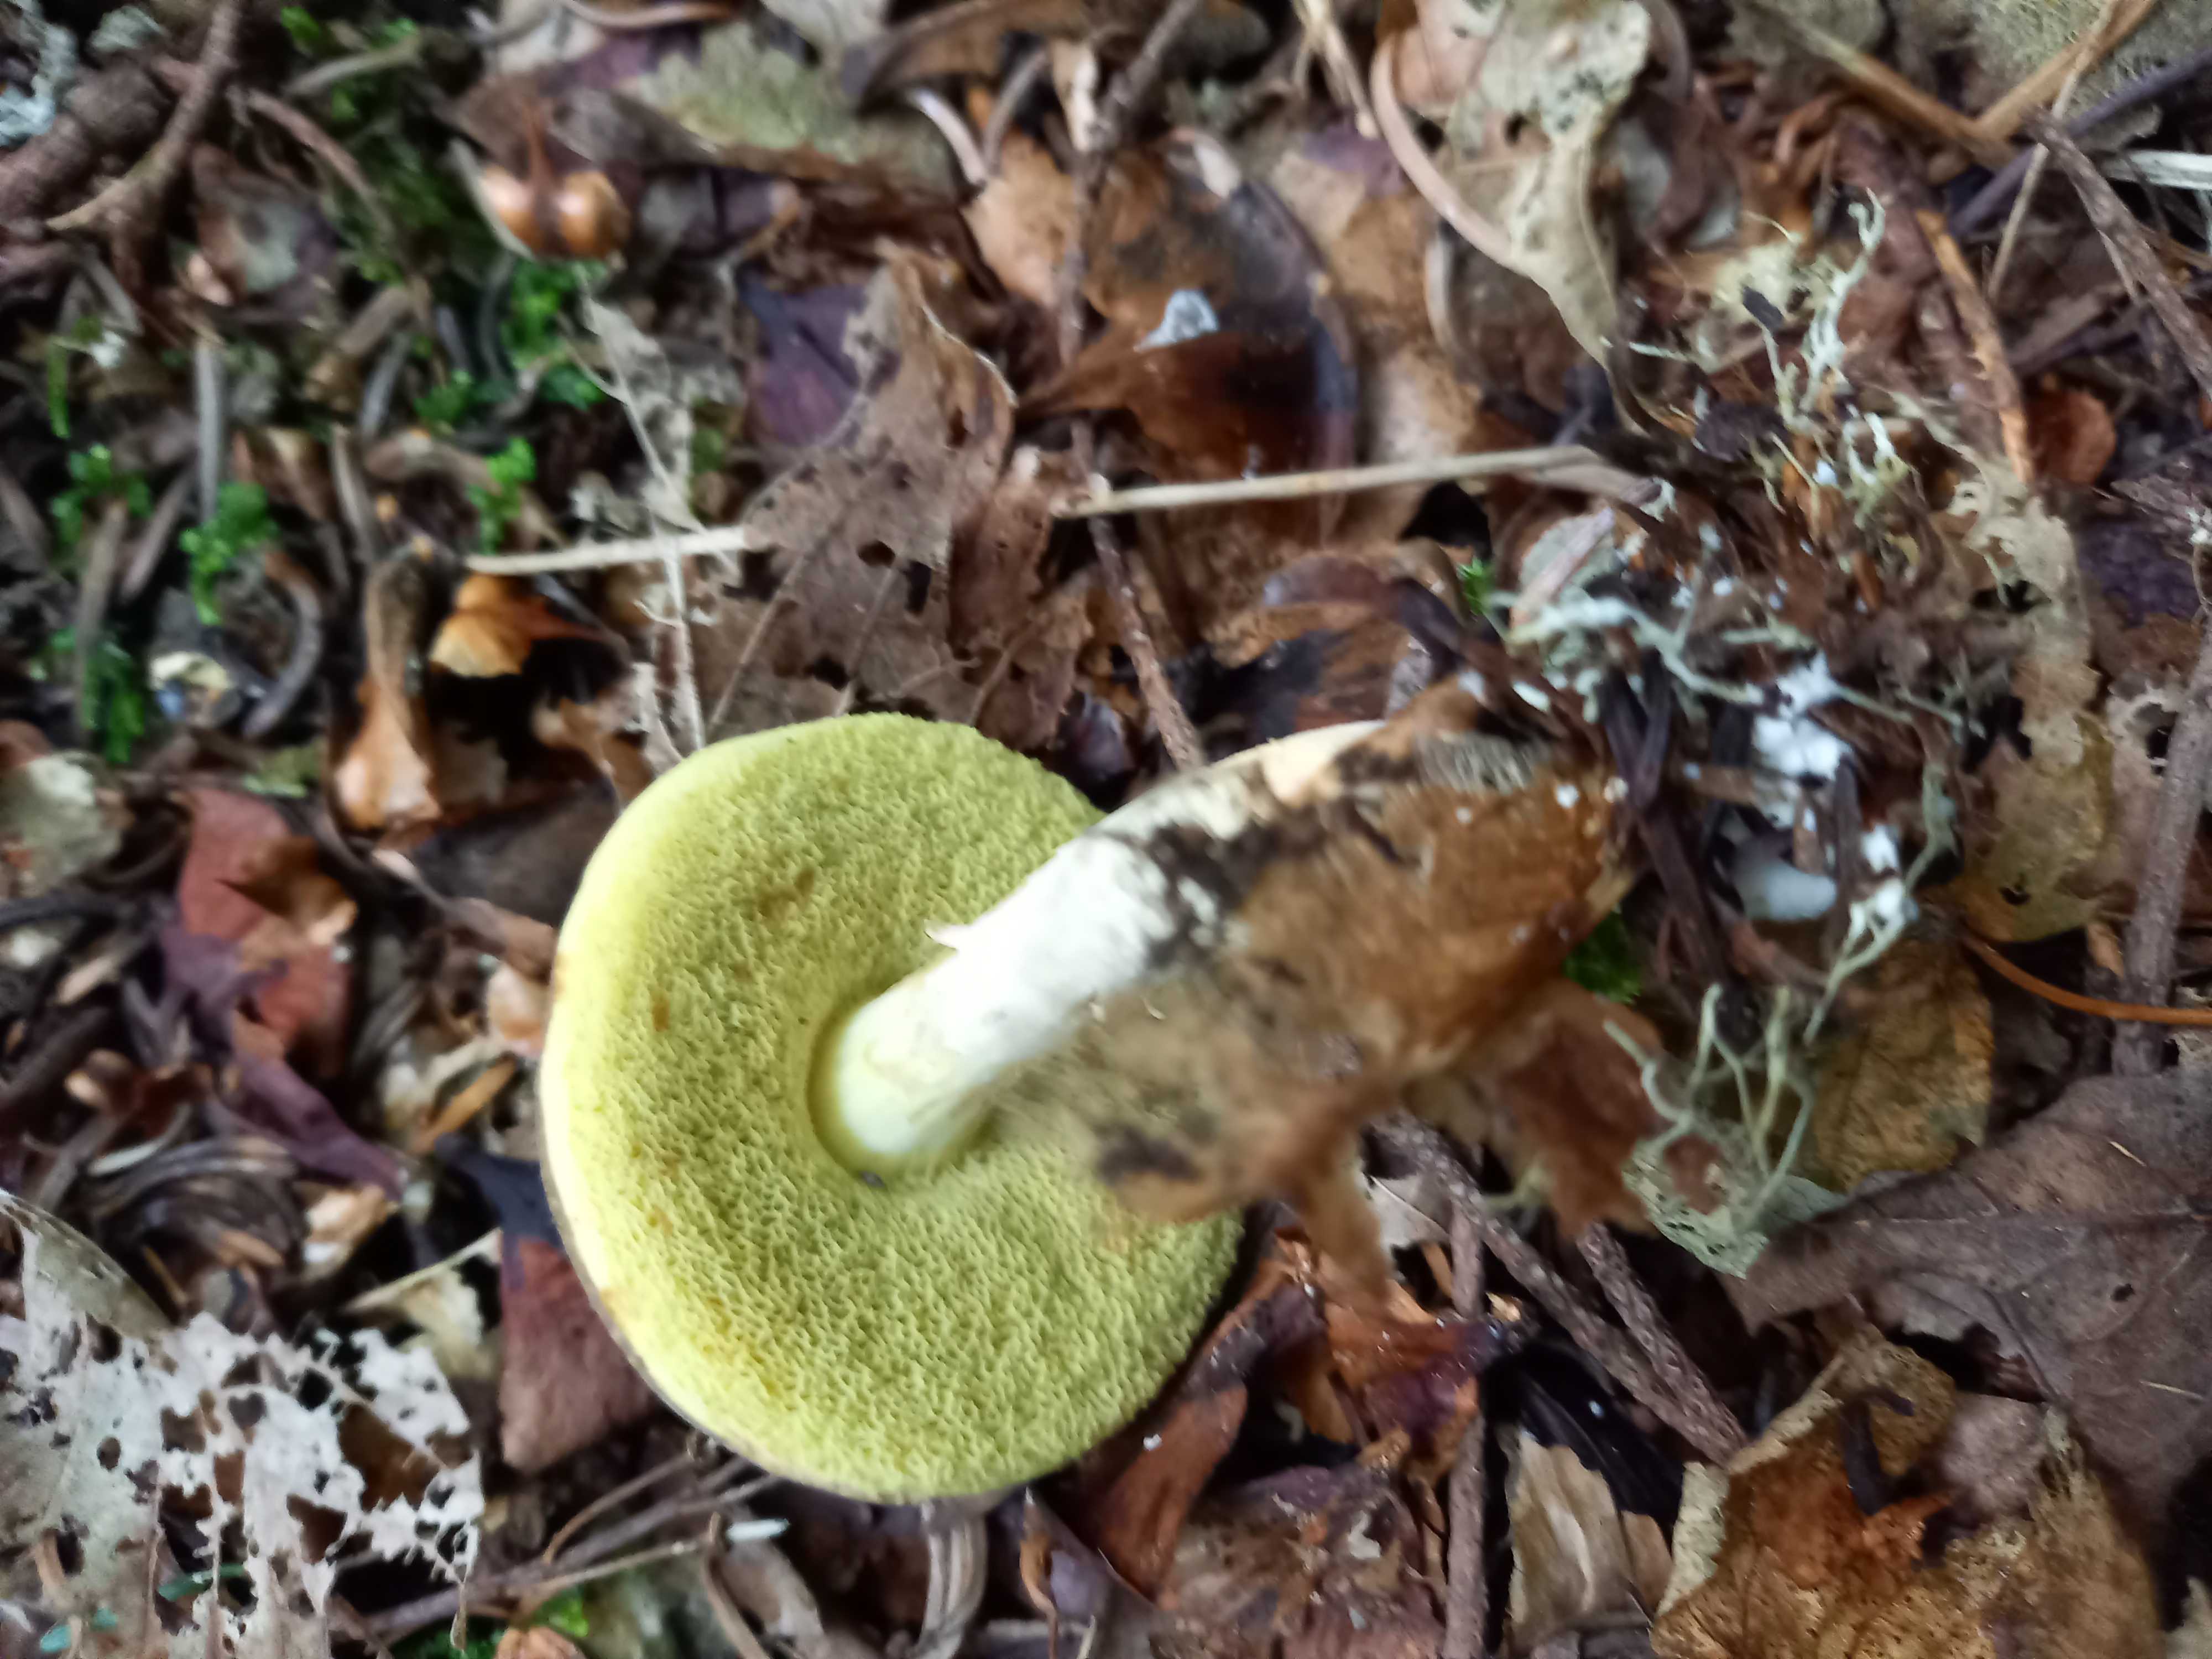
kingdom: Fungi
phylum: Basidiomycota
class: Agaricomycetes
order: Boletales
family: Boletaceae
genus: Xerocomellus
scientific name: Xerocomellus porosporus
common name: hvidsprukken rørhat
